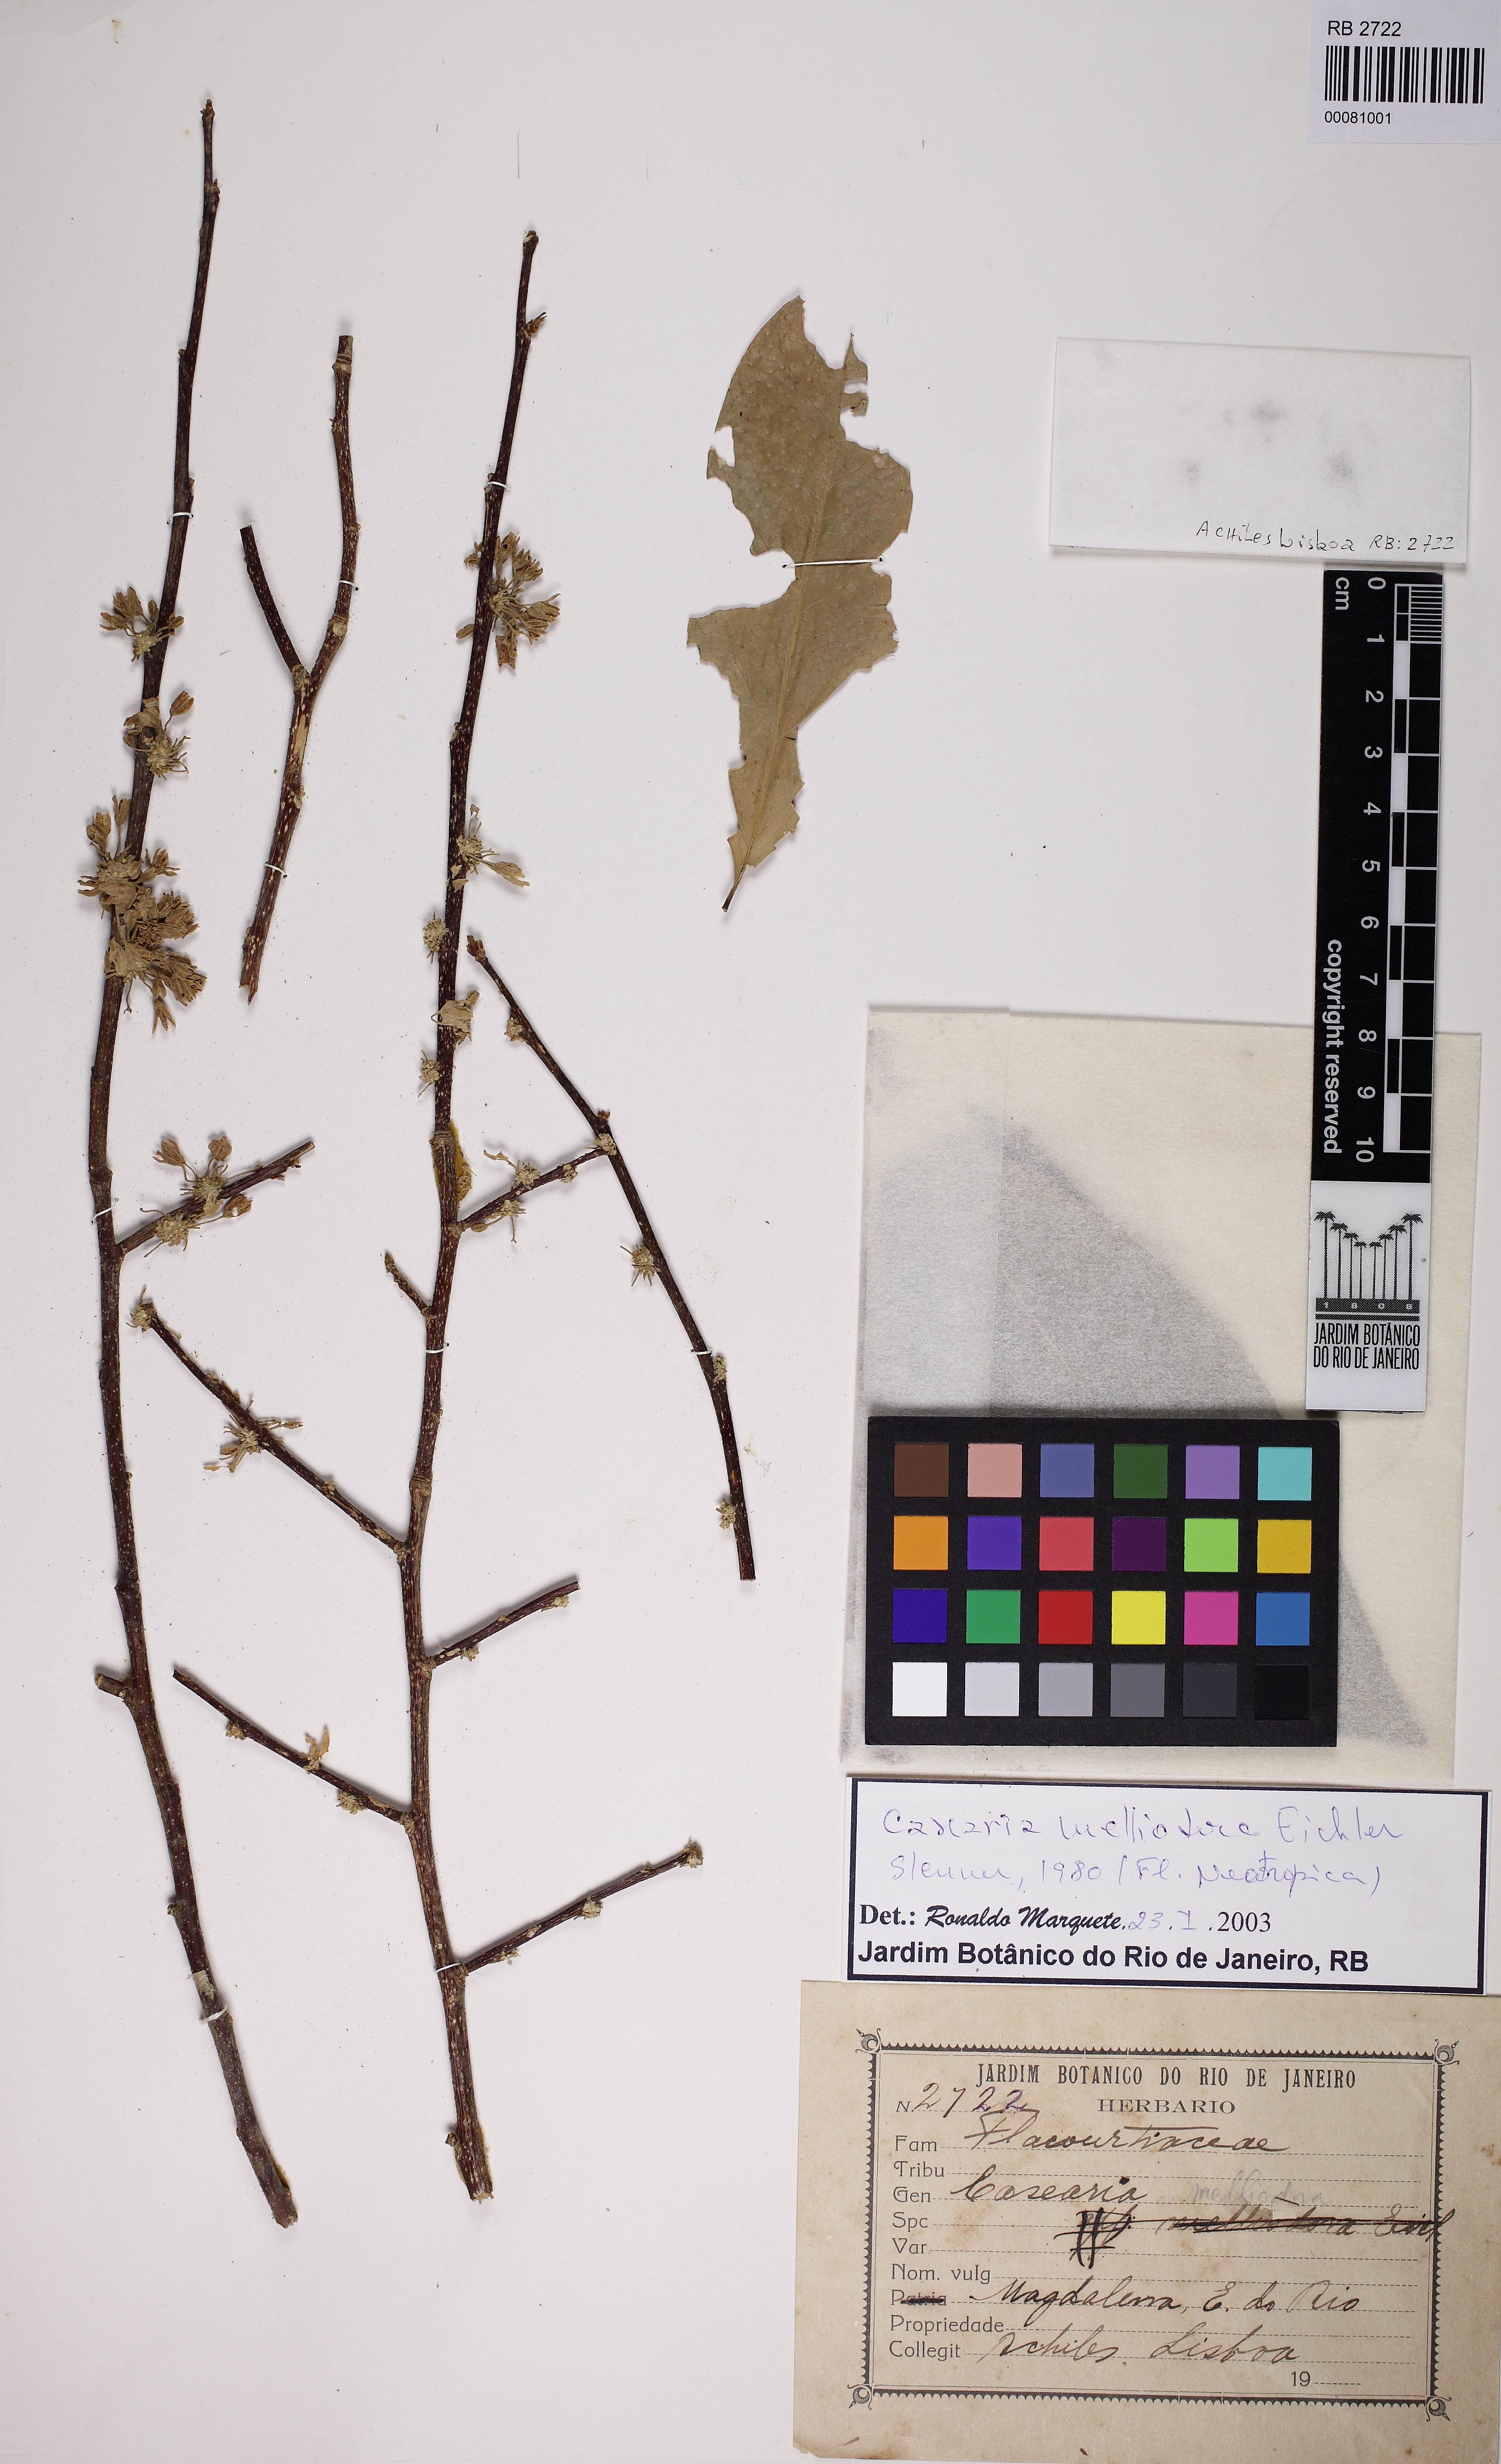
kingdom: Plantae
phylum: Tracheophyta
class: Magnoliopsida
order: Malpighiales
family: Salicaceae
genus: Casearia
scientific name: Casearia melliodora
